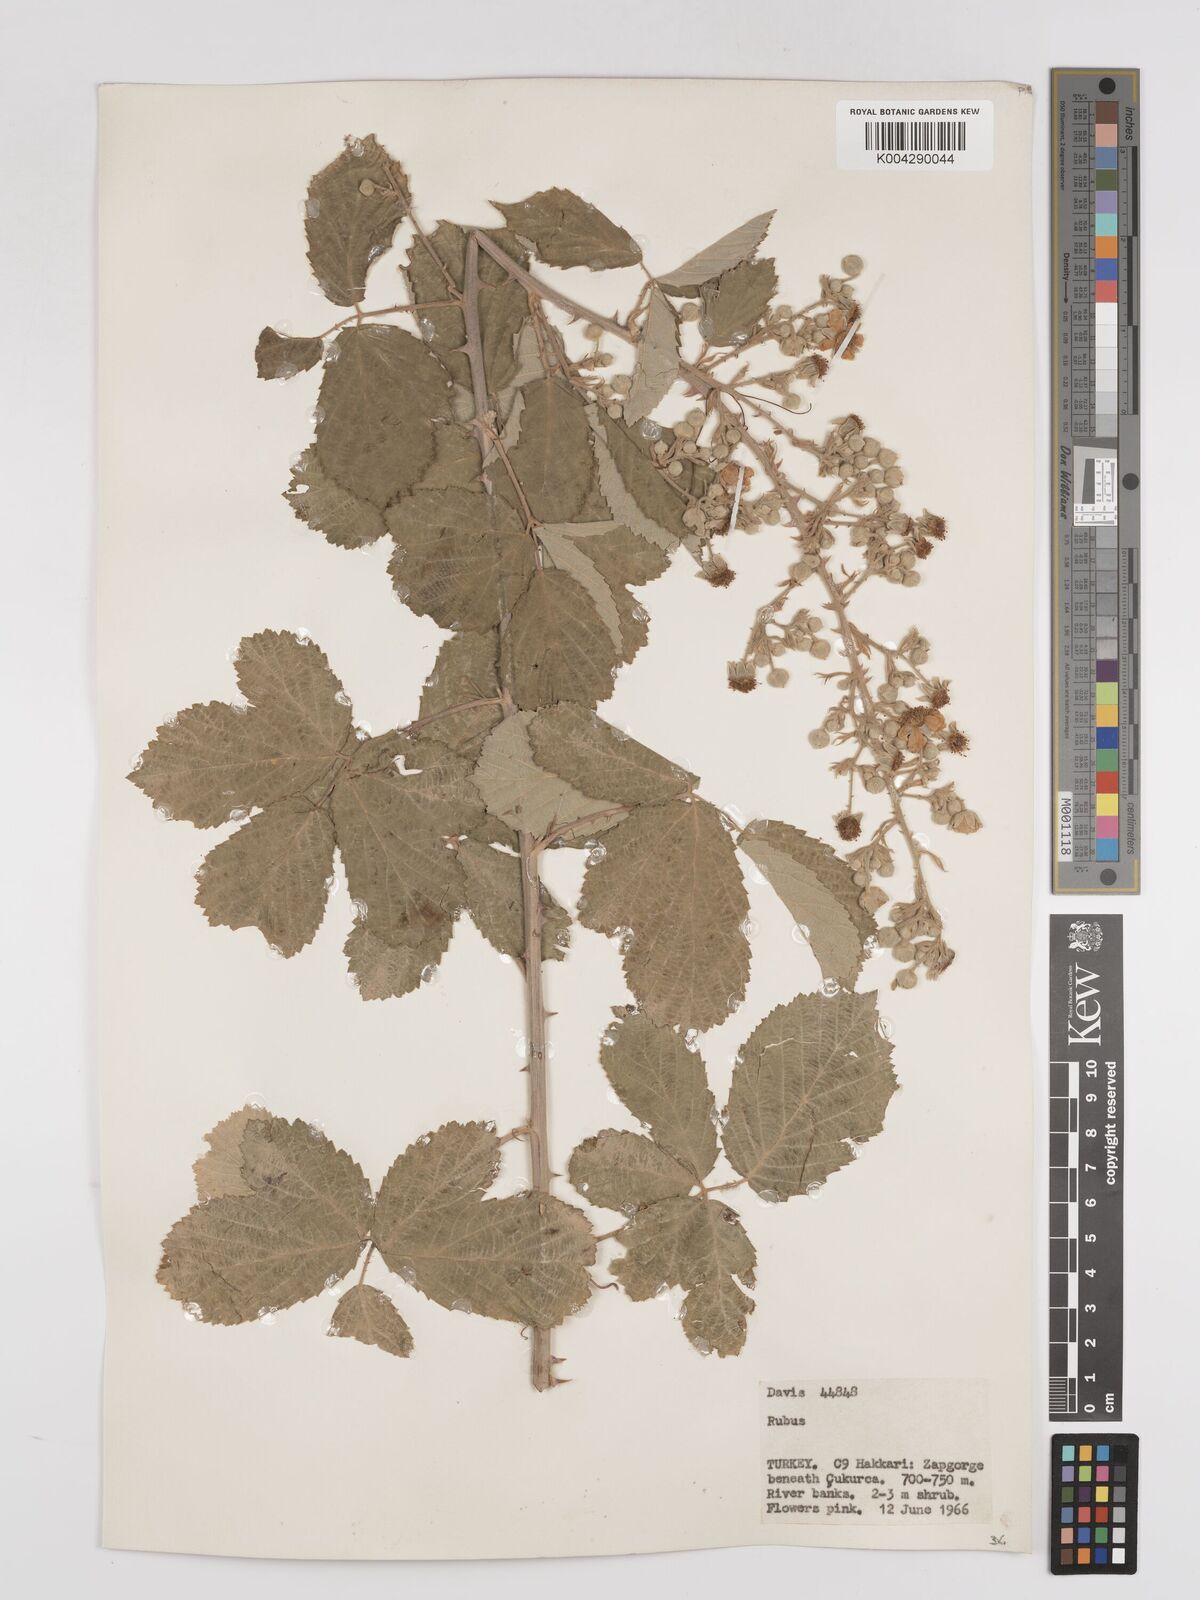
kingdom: Plantae
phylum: Tracheophyta
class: Magnoliopsida
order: Rosales
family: Rosaceae
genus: Rubus
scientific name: Rubus sanctus
